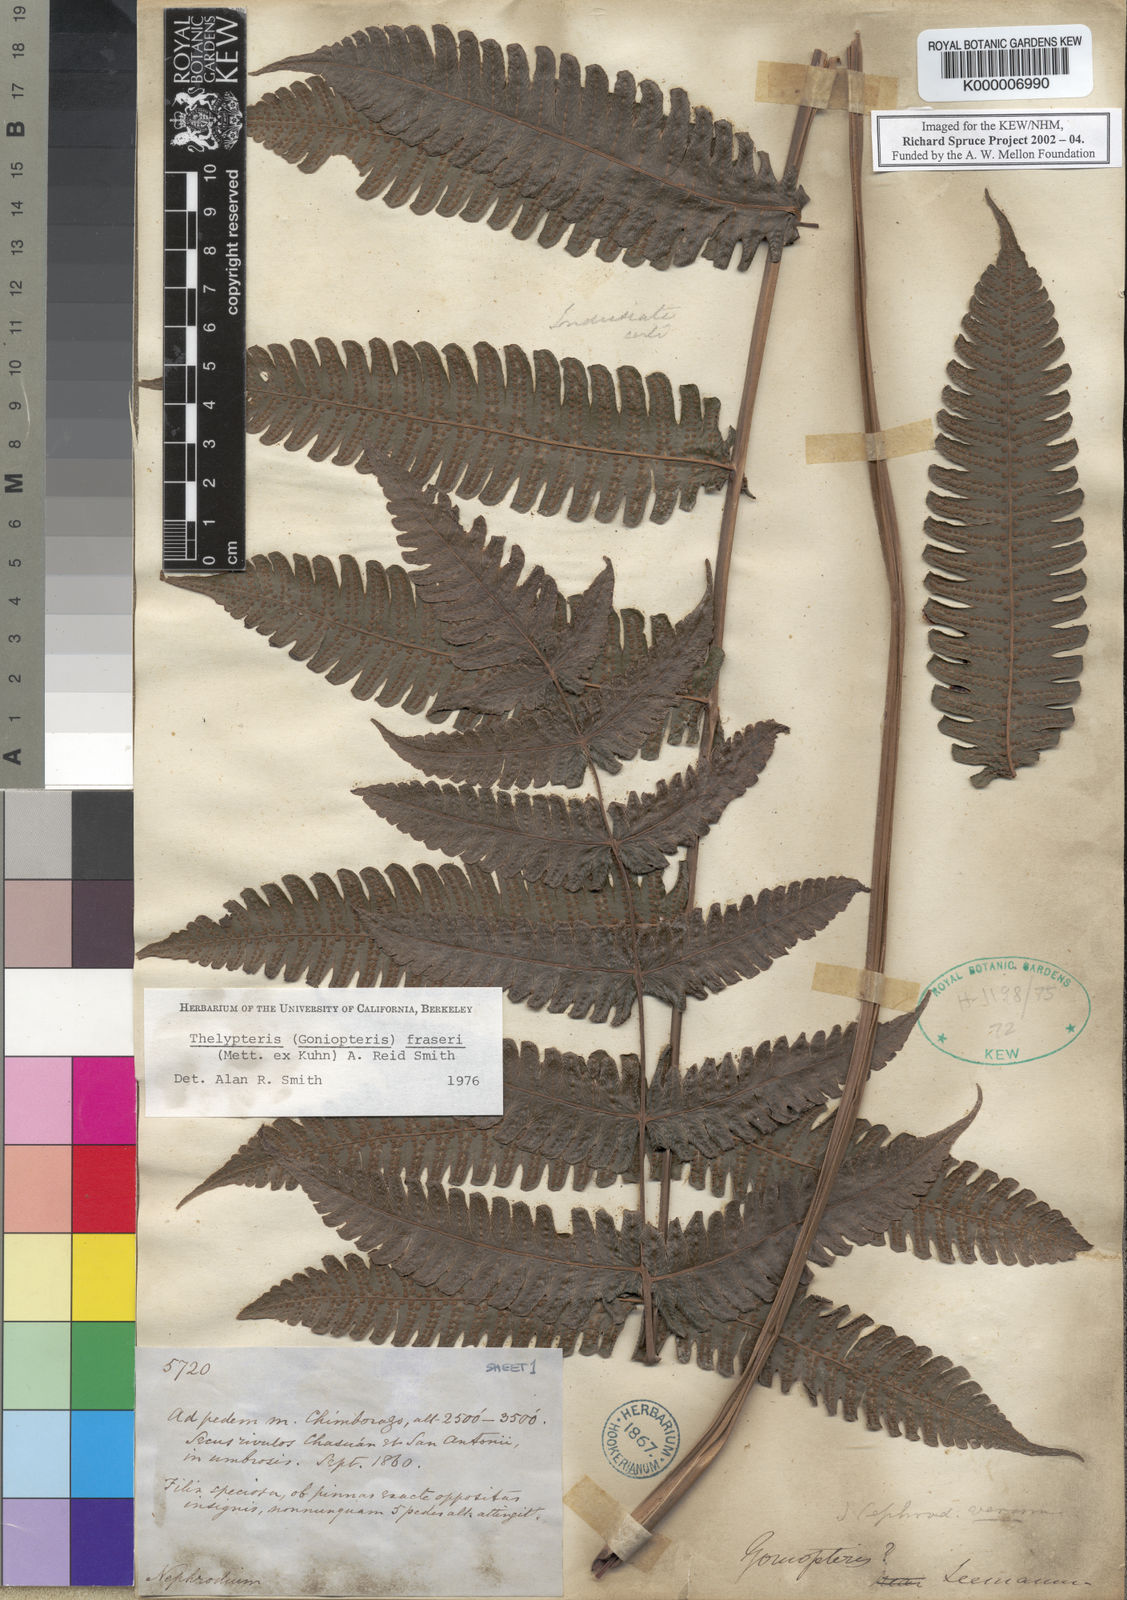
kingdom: Plantae
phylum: Tracheophyta
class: Polypodiopsida
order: Polypodiales
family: Thelypteridaceae
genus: Goniopteris
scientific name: Goniopteris fraseri
